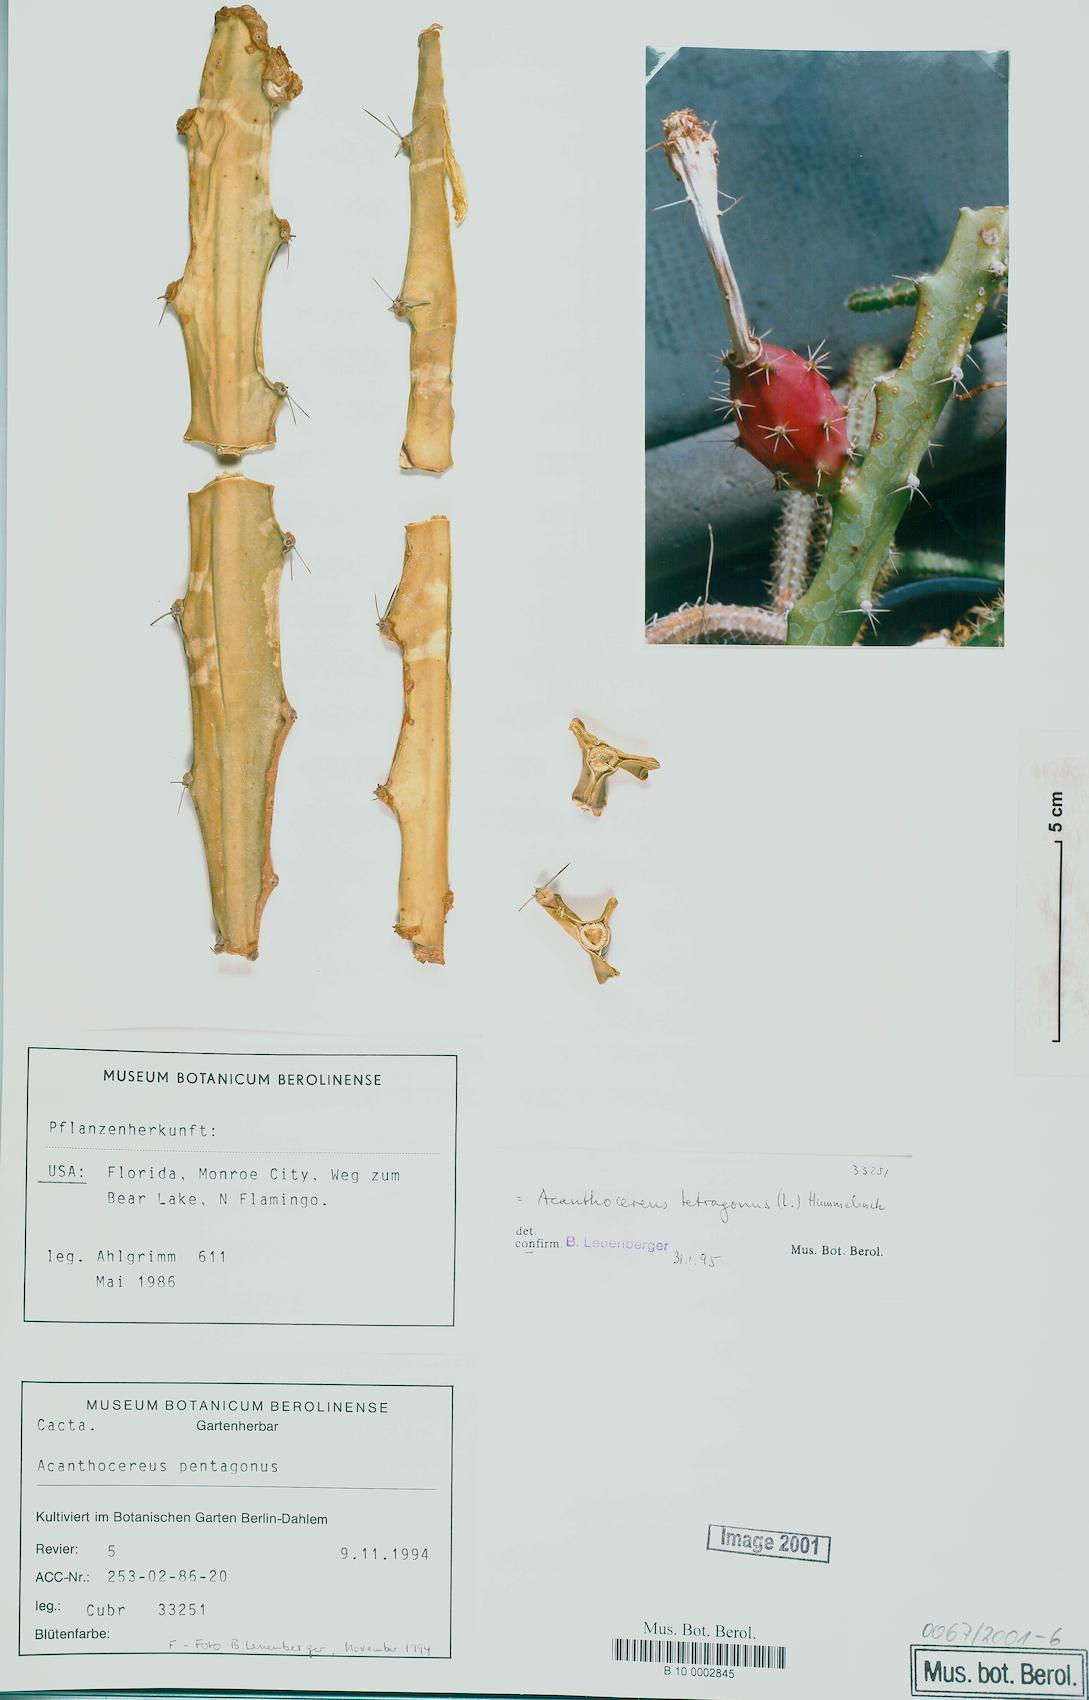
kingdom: Plantae
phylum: Tracheophyta
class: Magnoliopsida
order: Caryophyllales
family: Cactaceae
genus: Acanthocereus
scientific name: Acanthocereus tetragonus
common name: Triangle cactus
